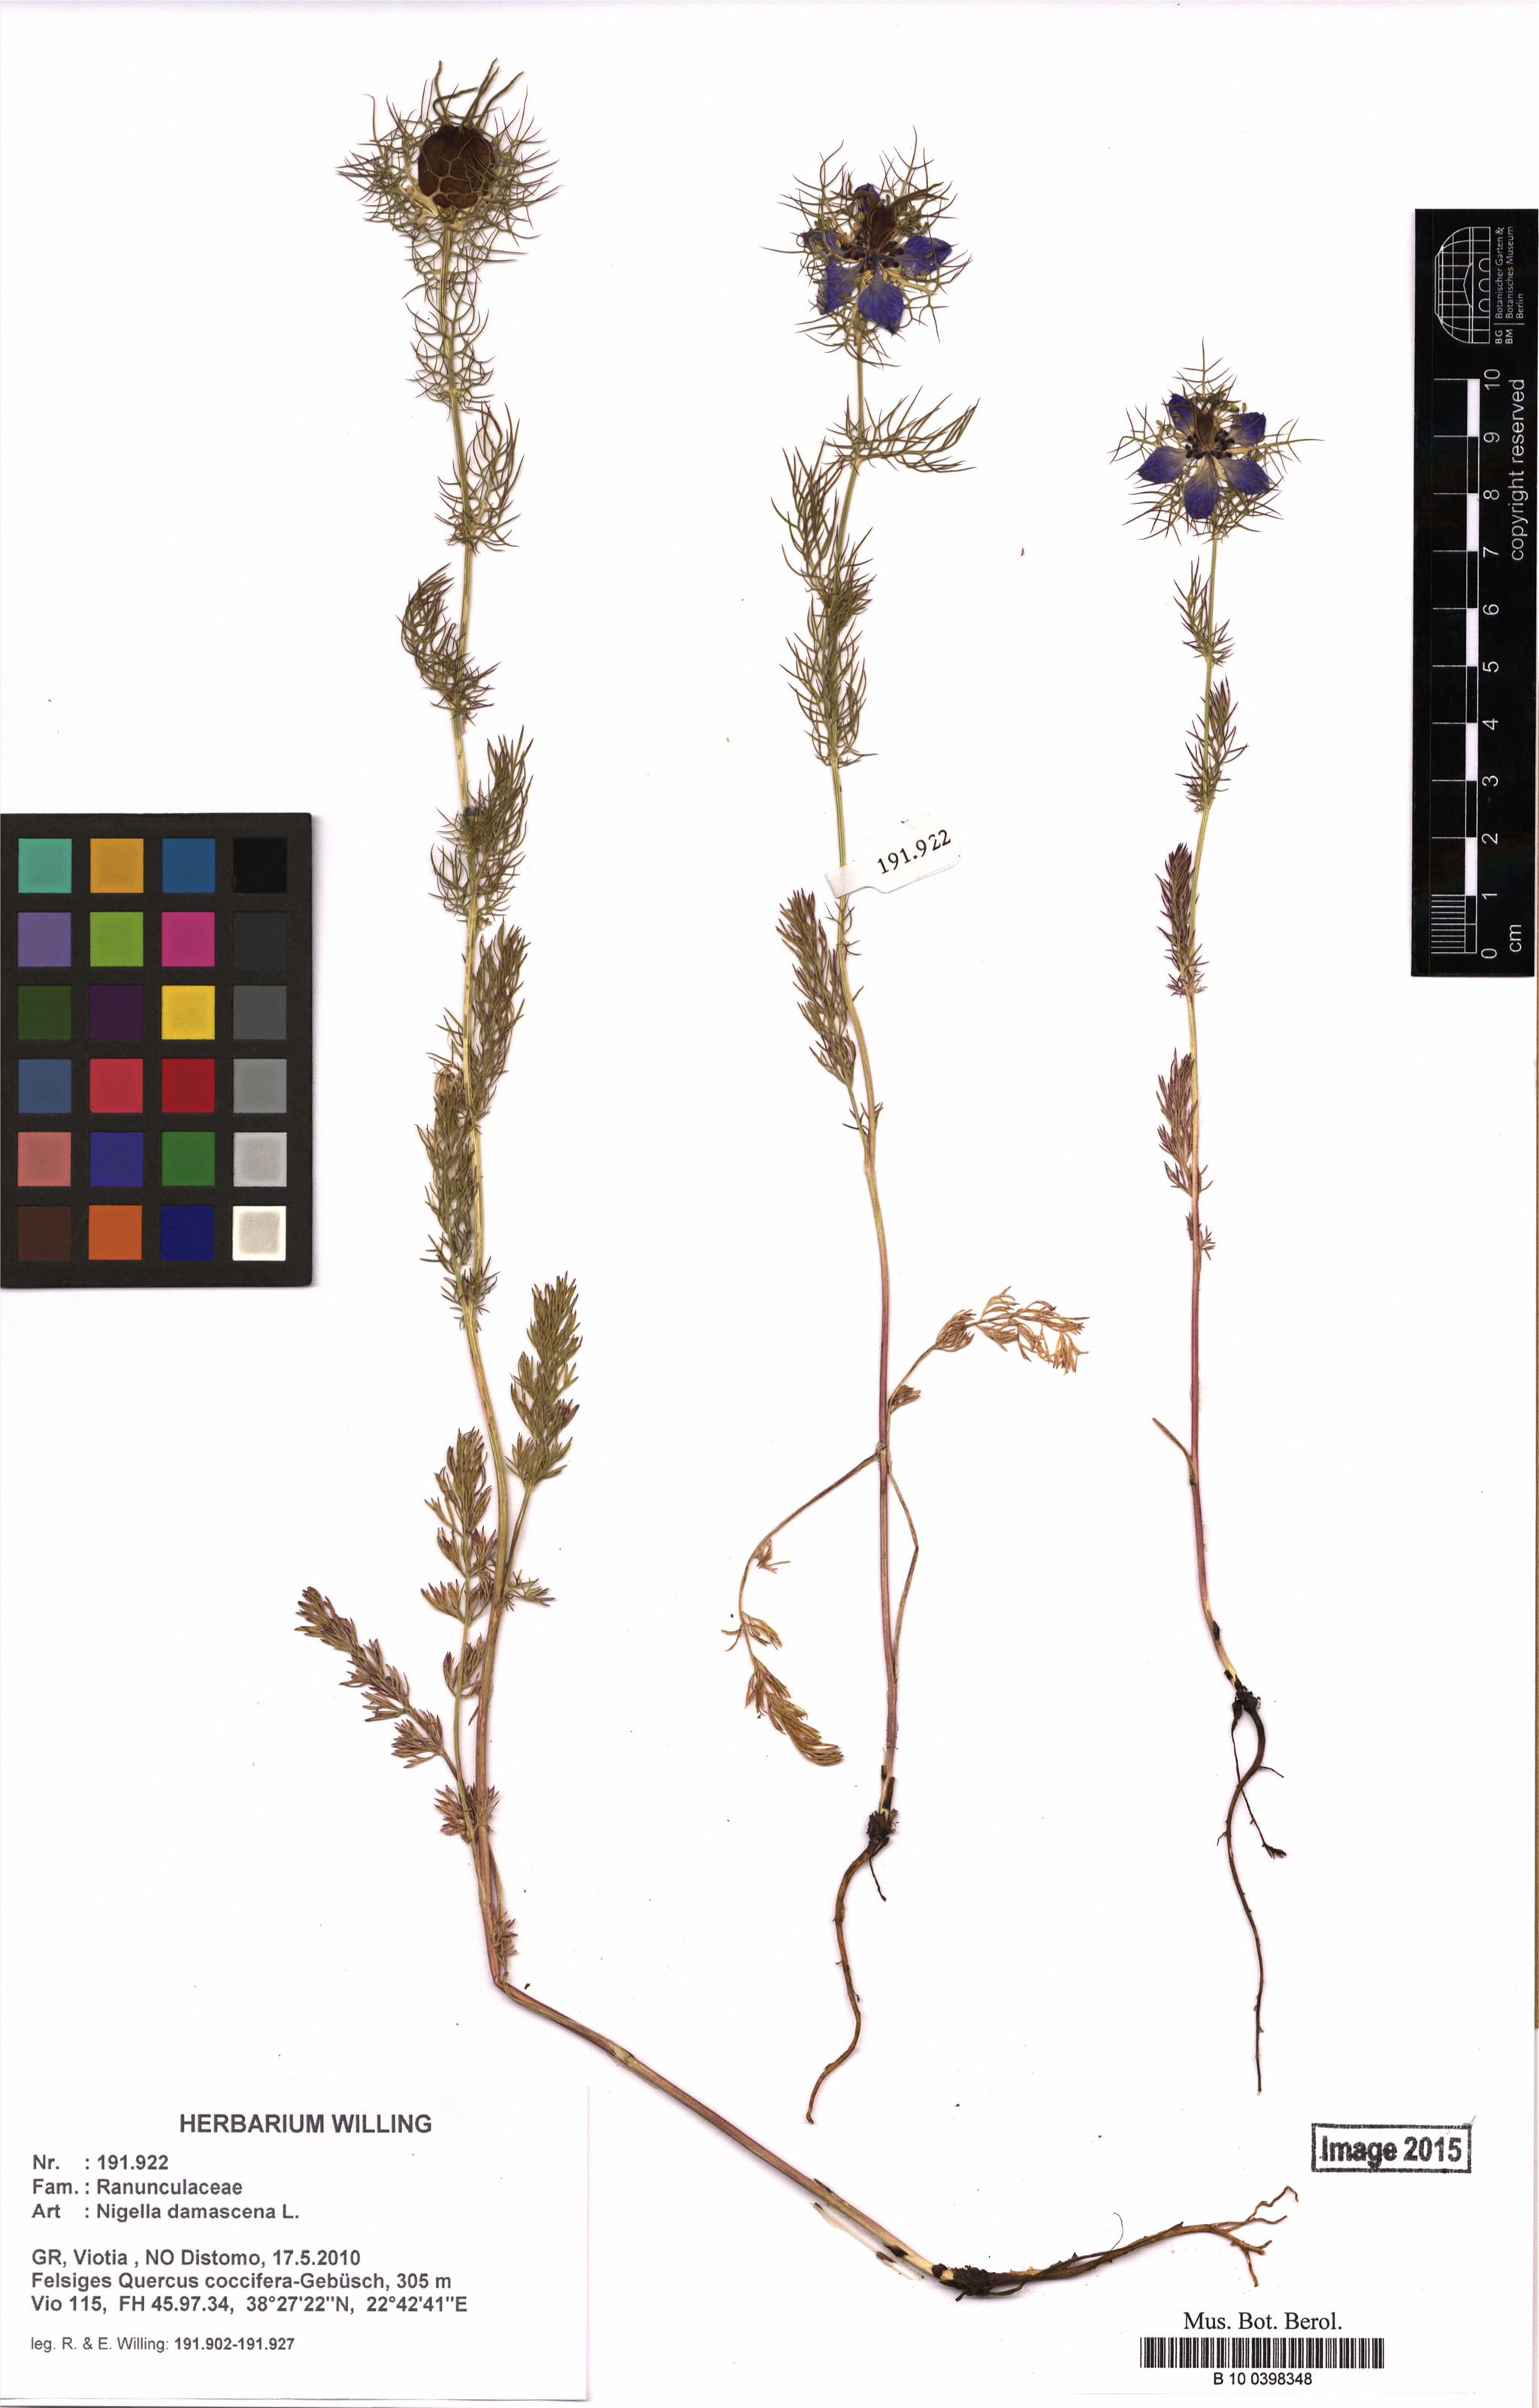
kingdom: Plantae
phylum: Tracheophyta
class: Magnoliopsida
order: Ranunculales
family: Ranunculaceae
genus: Nigella
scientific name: Nigella damascena
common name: Love-in-a-mist
